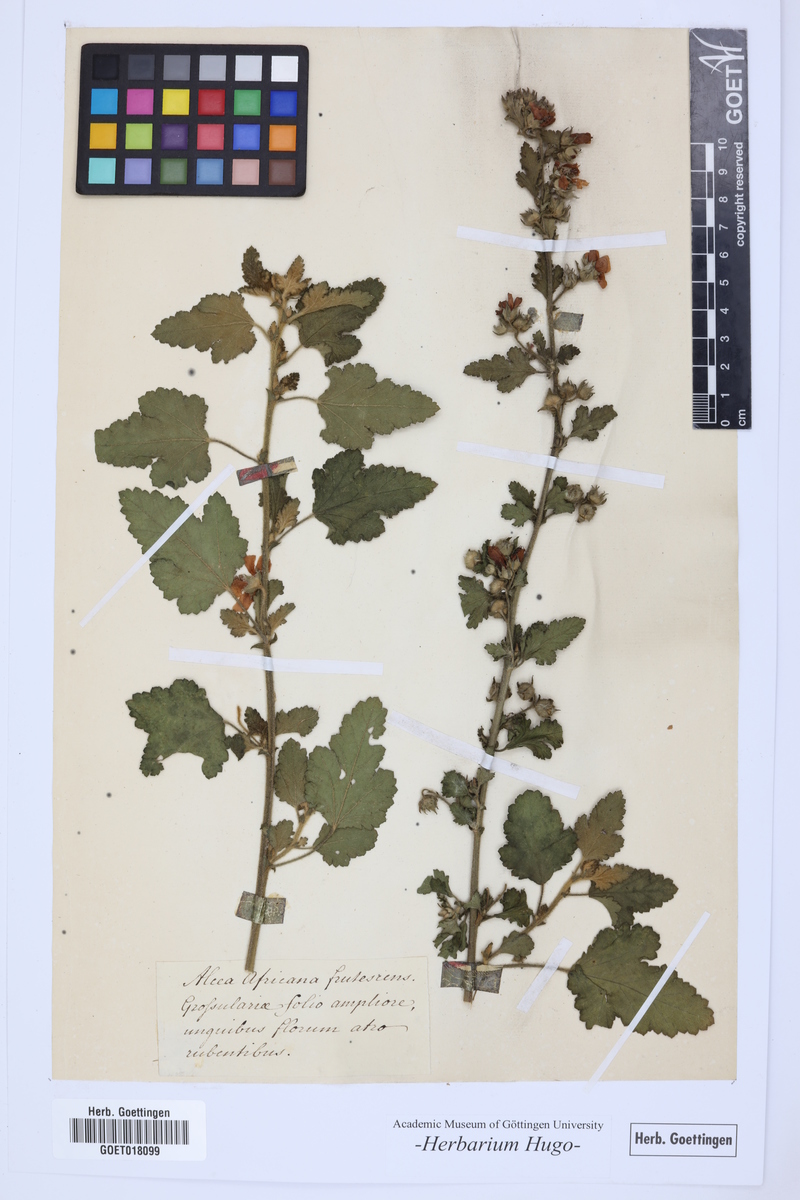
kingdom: Plantae
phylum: Tracheophyta
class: Magnoliopsida
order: Malvales
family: Malvaceae
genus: Alcea
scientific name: Alcea
